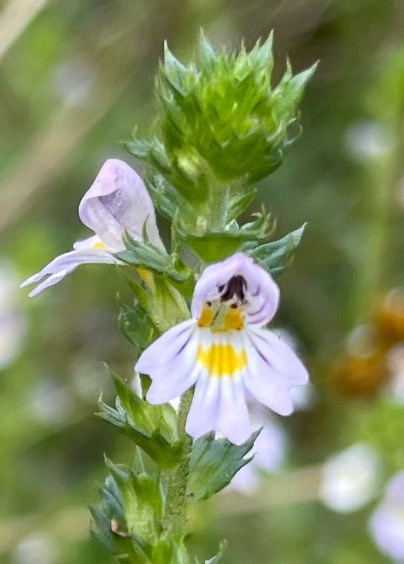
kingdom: Plantae
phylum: Tracheophyta
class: Magnoliopsida
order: Lamiales
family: Orobanchaceae
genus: Euphrasia
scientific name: Euphrasia stricta
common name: Spids øjentrøst
